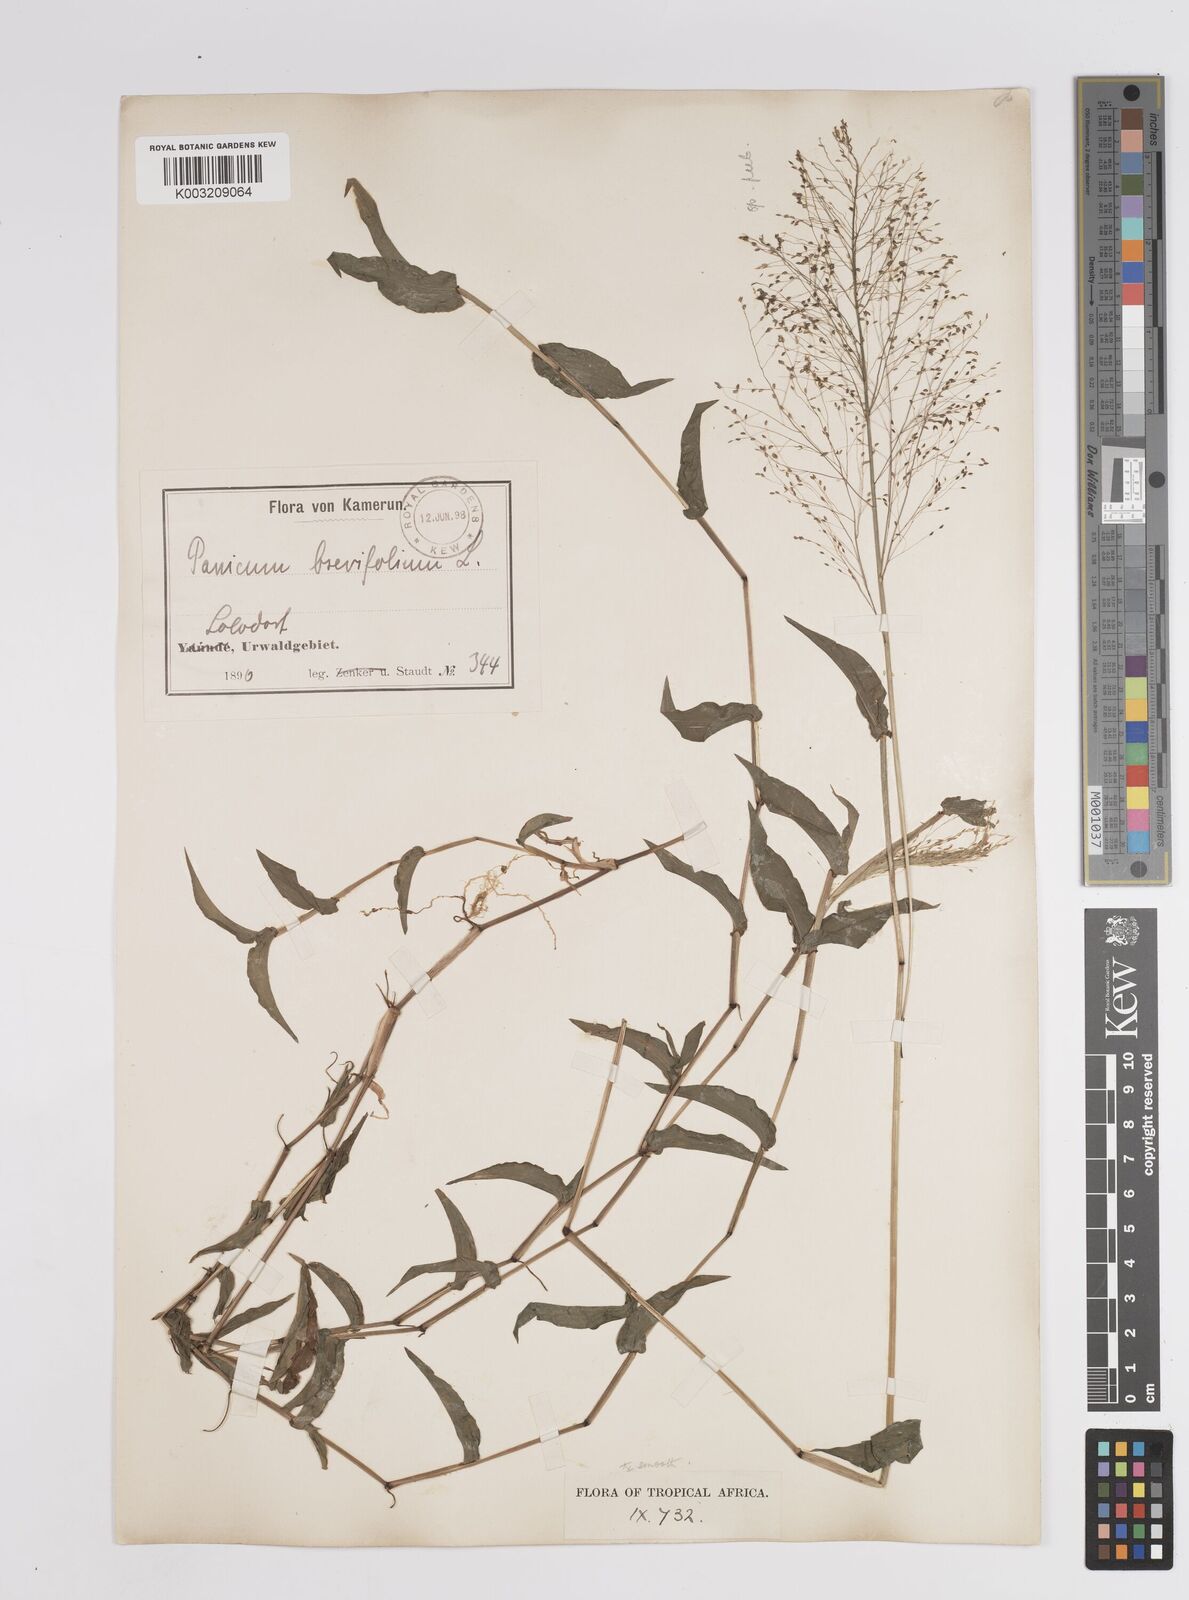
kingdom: Plantae
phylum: Tracheophyta
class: Liliopsida
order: Poales
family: Poaceae
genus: Panicum
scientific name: Panicum brevifolium
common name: Shortleaf panic grass
